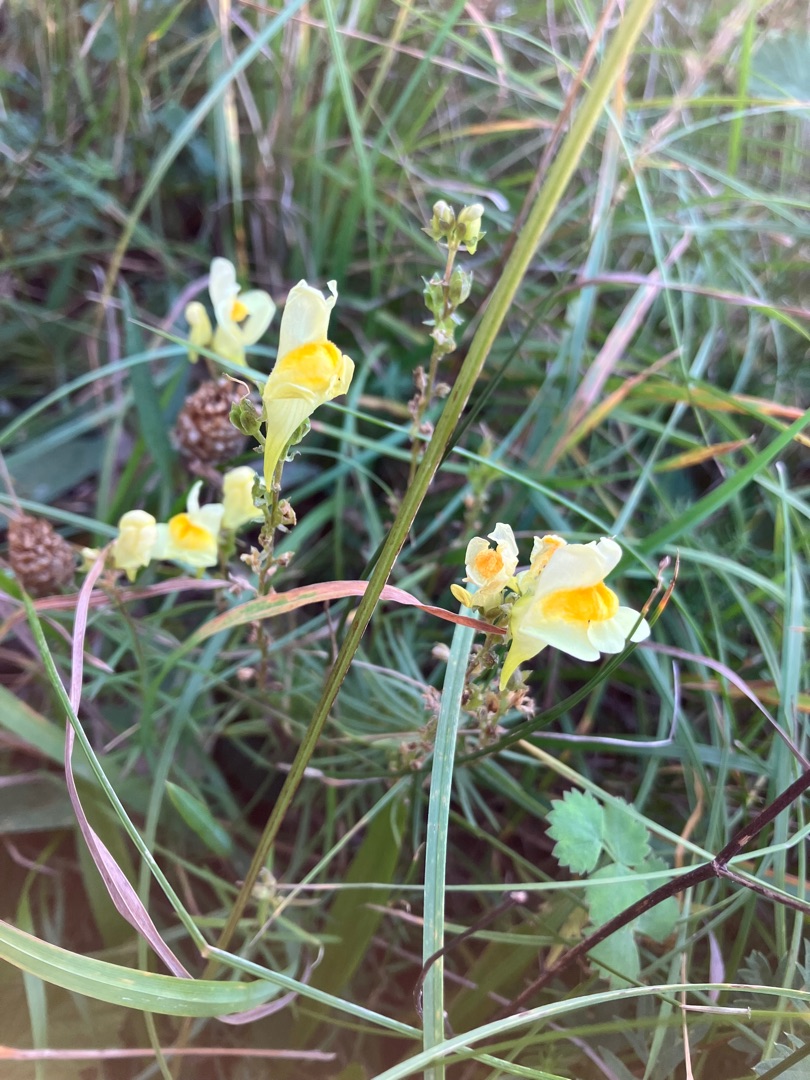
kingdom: Plantae
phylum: Tracheophyta
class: Magnoliopsida
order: Lamiales
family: Plantaginaceae
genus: Linaria
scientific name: Linaria vulgaris
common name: Almindelig torskemund
